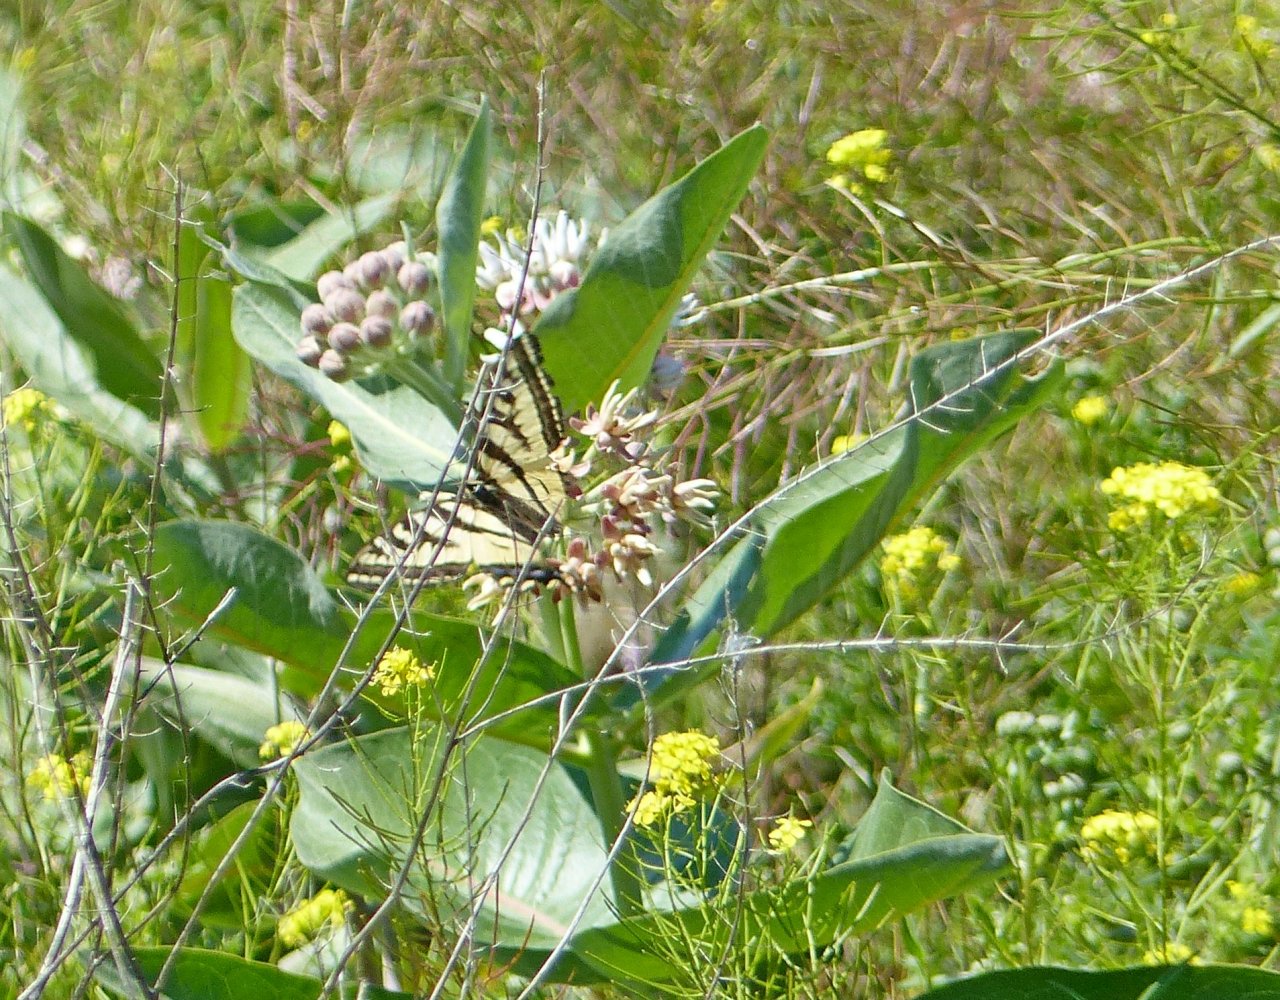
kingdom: Animalia
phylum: Arthropoda
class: Insecta
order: Lepidoptera
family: Papilionidae
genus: Pterourus
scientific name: Pterourus rutulus
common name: Western Tiger Swallowtail
